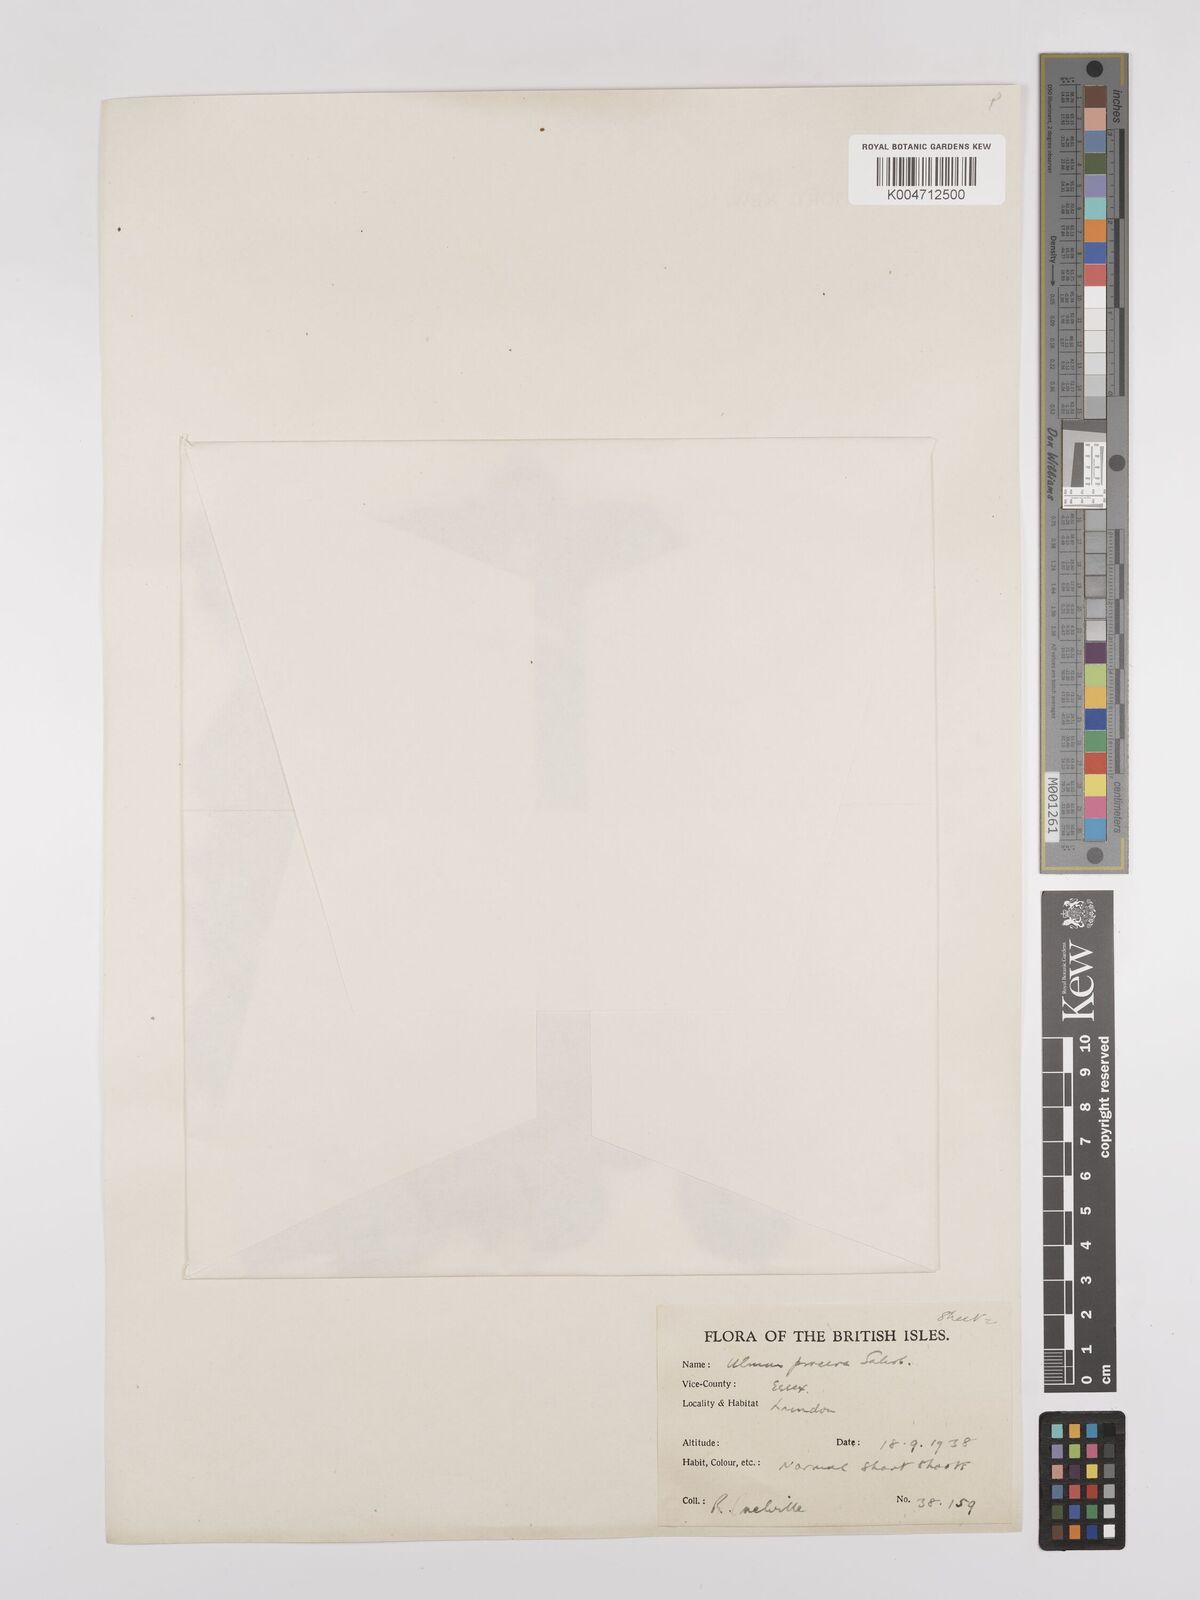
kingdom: Plantae
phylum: Tracheophyta
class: Magnoliopsida
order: Rosales
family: Ulmaceae
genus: Ulmus
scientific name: Ulmus minor
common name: Small-leaved elm
